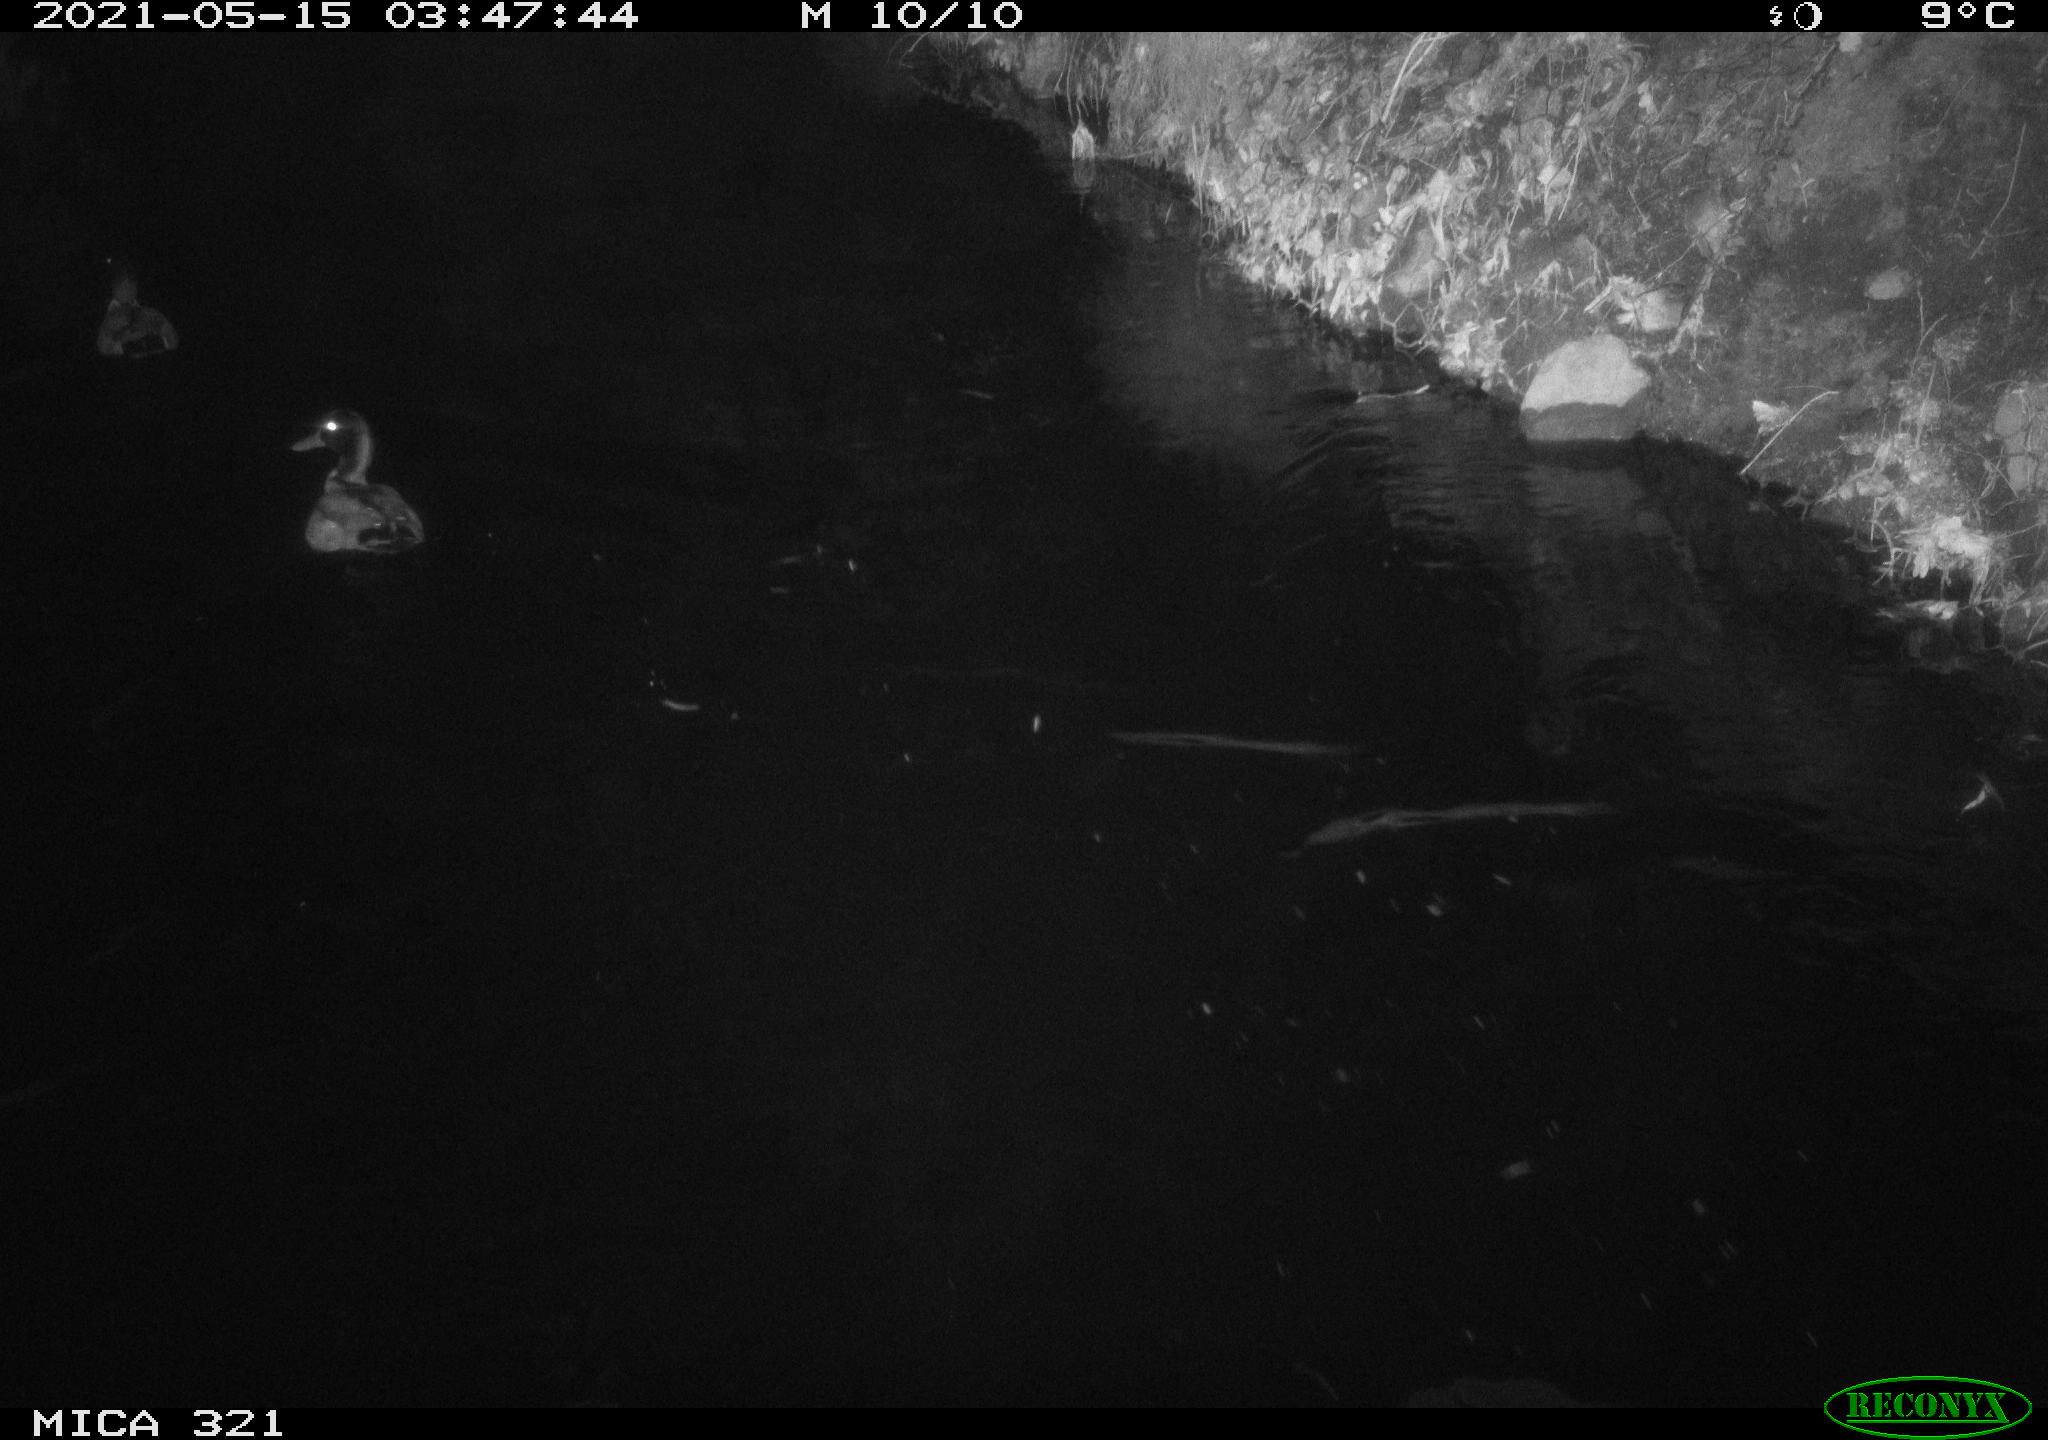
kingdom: Animalia
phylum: Chordata
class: Aves
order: Anseriformes
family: Anatidae
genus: Anas
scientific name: Anas platyrhynchos
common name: Mallard
